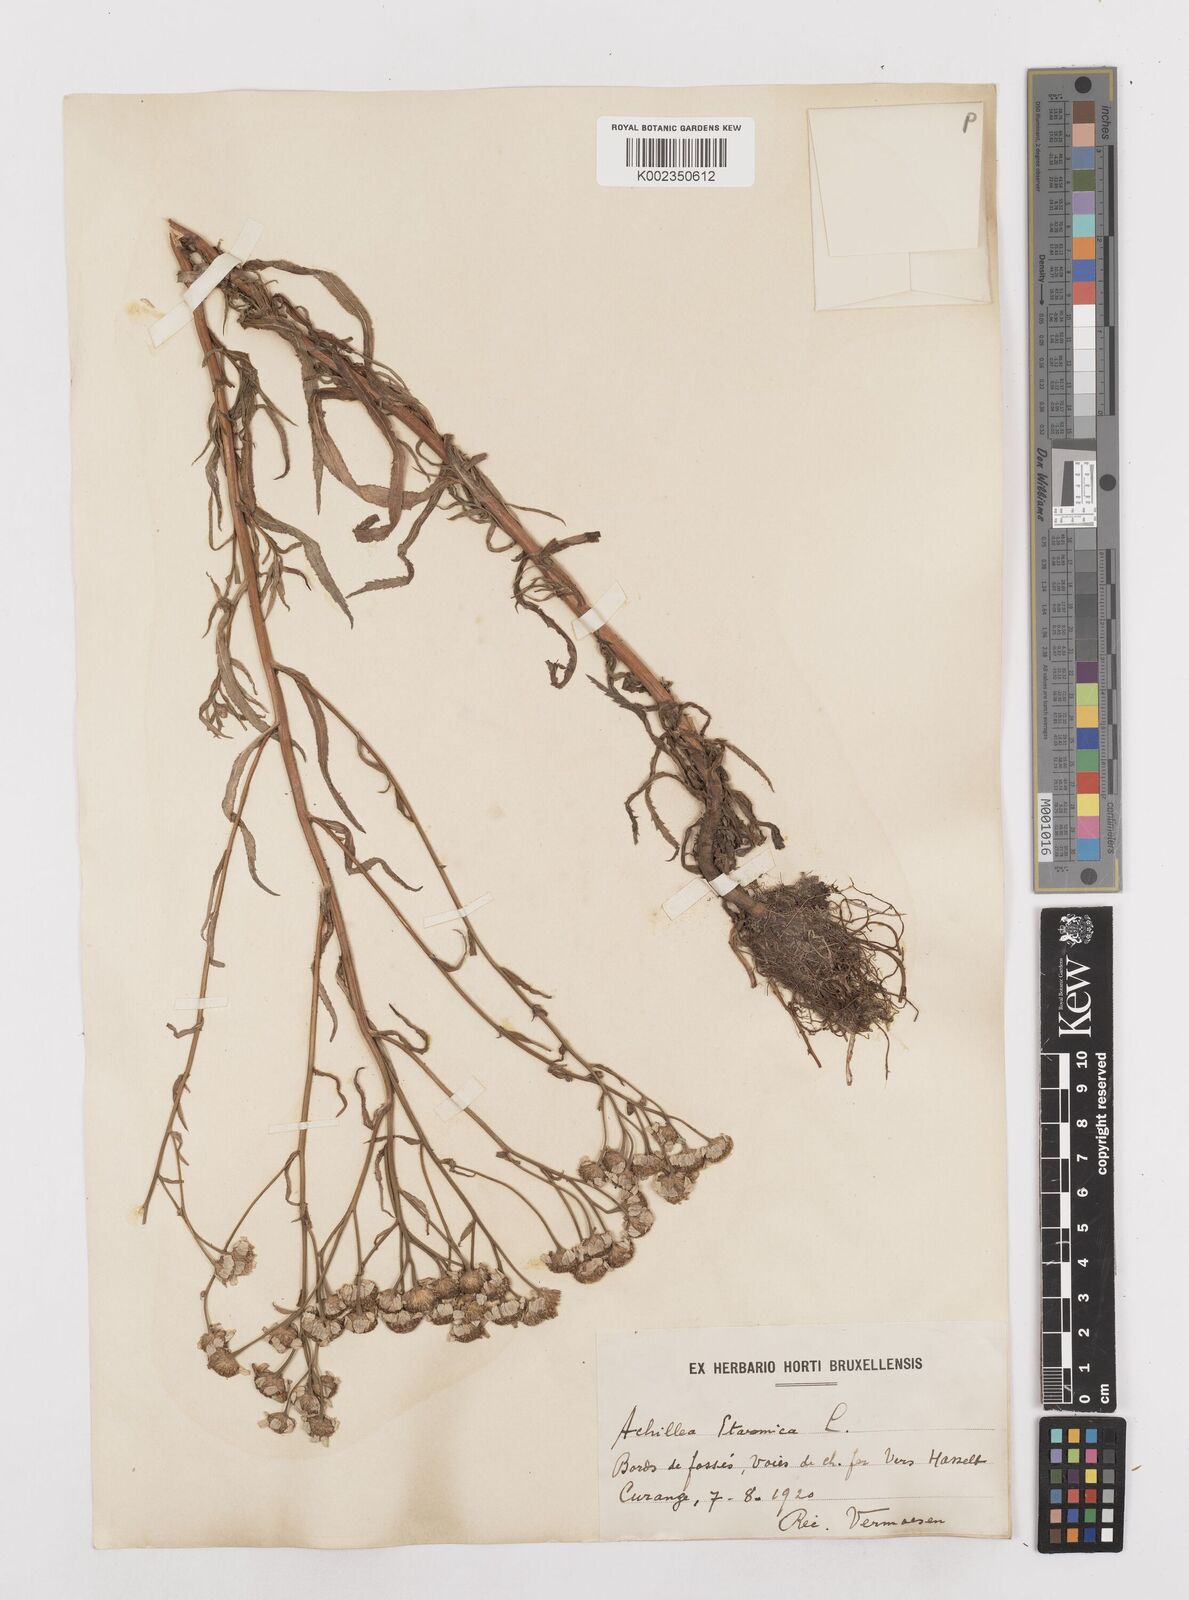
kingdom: Plantae
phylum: Tracheophyta
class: Magnoliopsida
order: Asterales
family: Asteraceae
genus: Achillea
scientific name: Achillea ptarmica
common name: Sneezeweed
